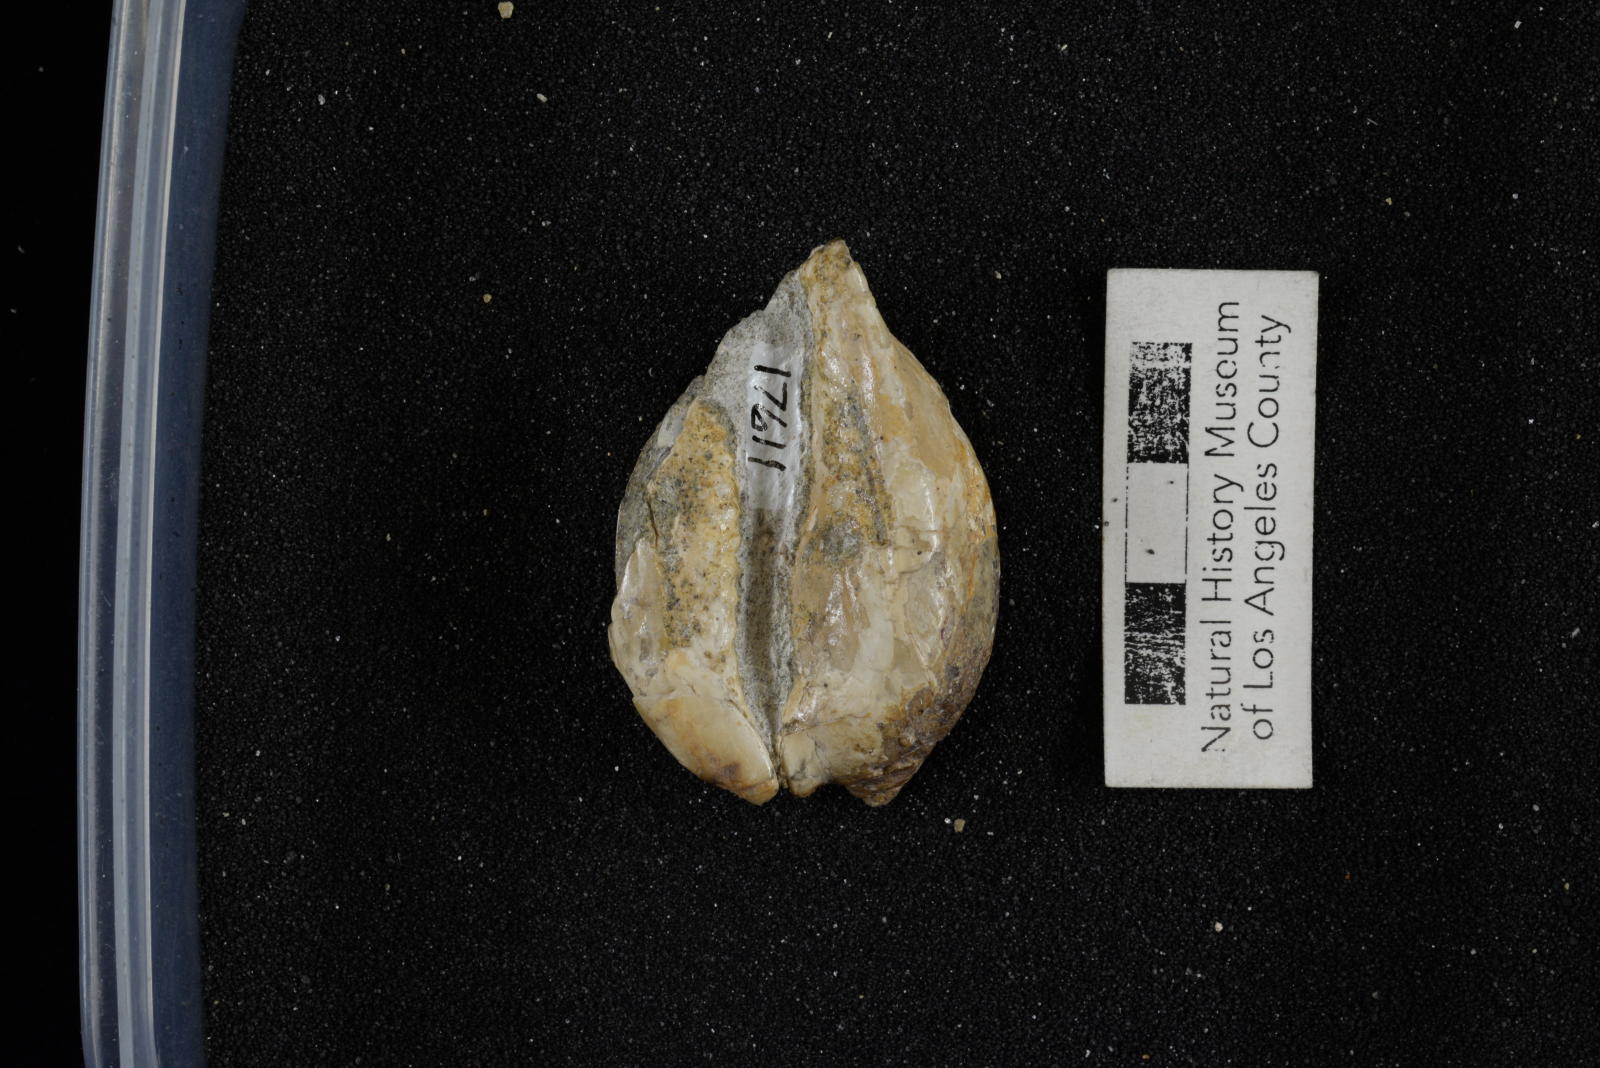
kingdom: Animalia
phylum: Mollusca
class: Gastropoda
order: Littorinimorpha
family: Cypraeidae
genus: Protocypraea
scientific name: Protocypraea
